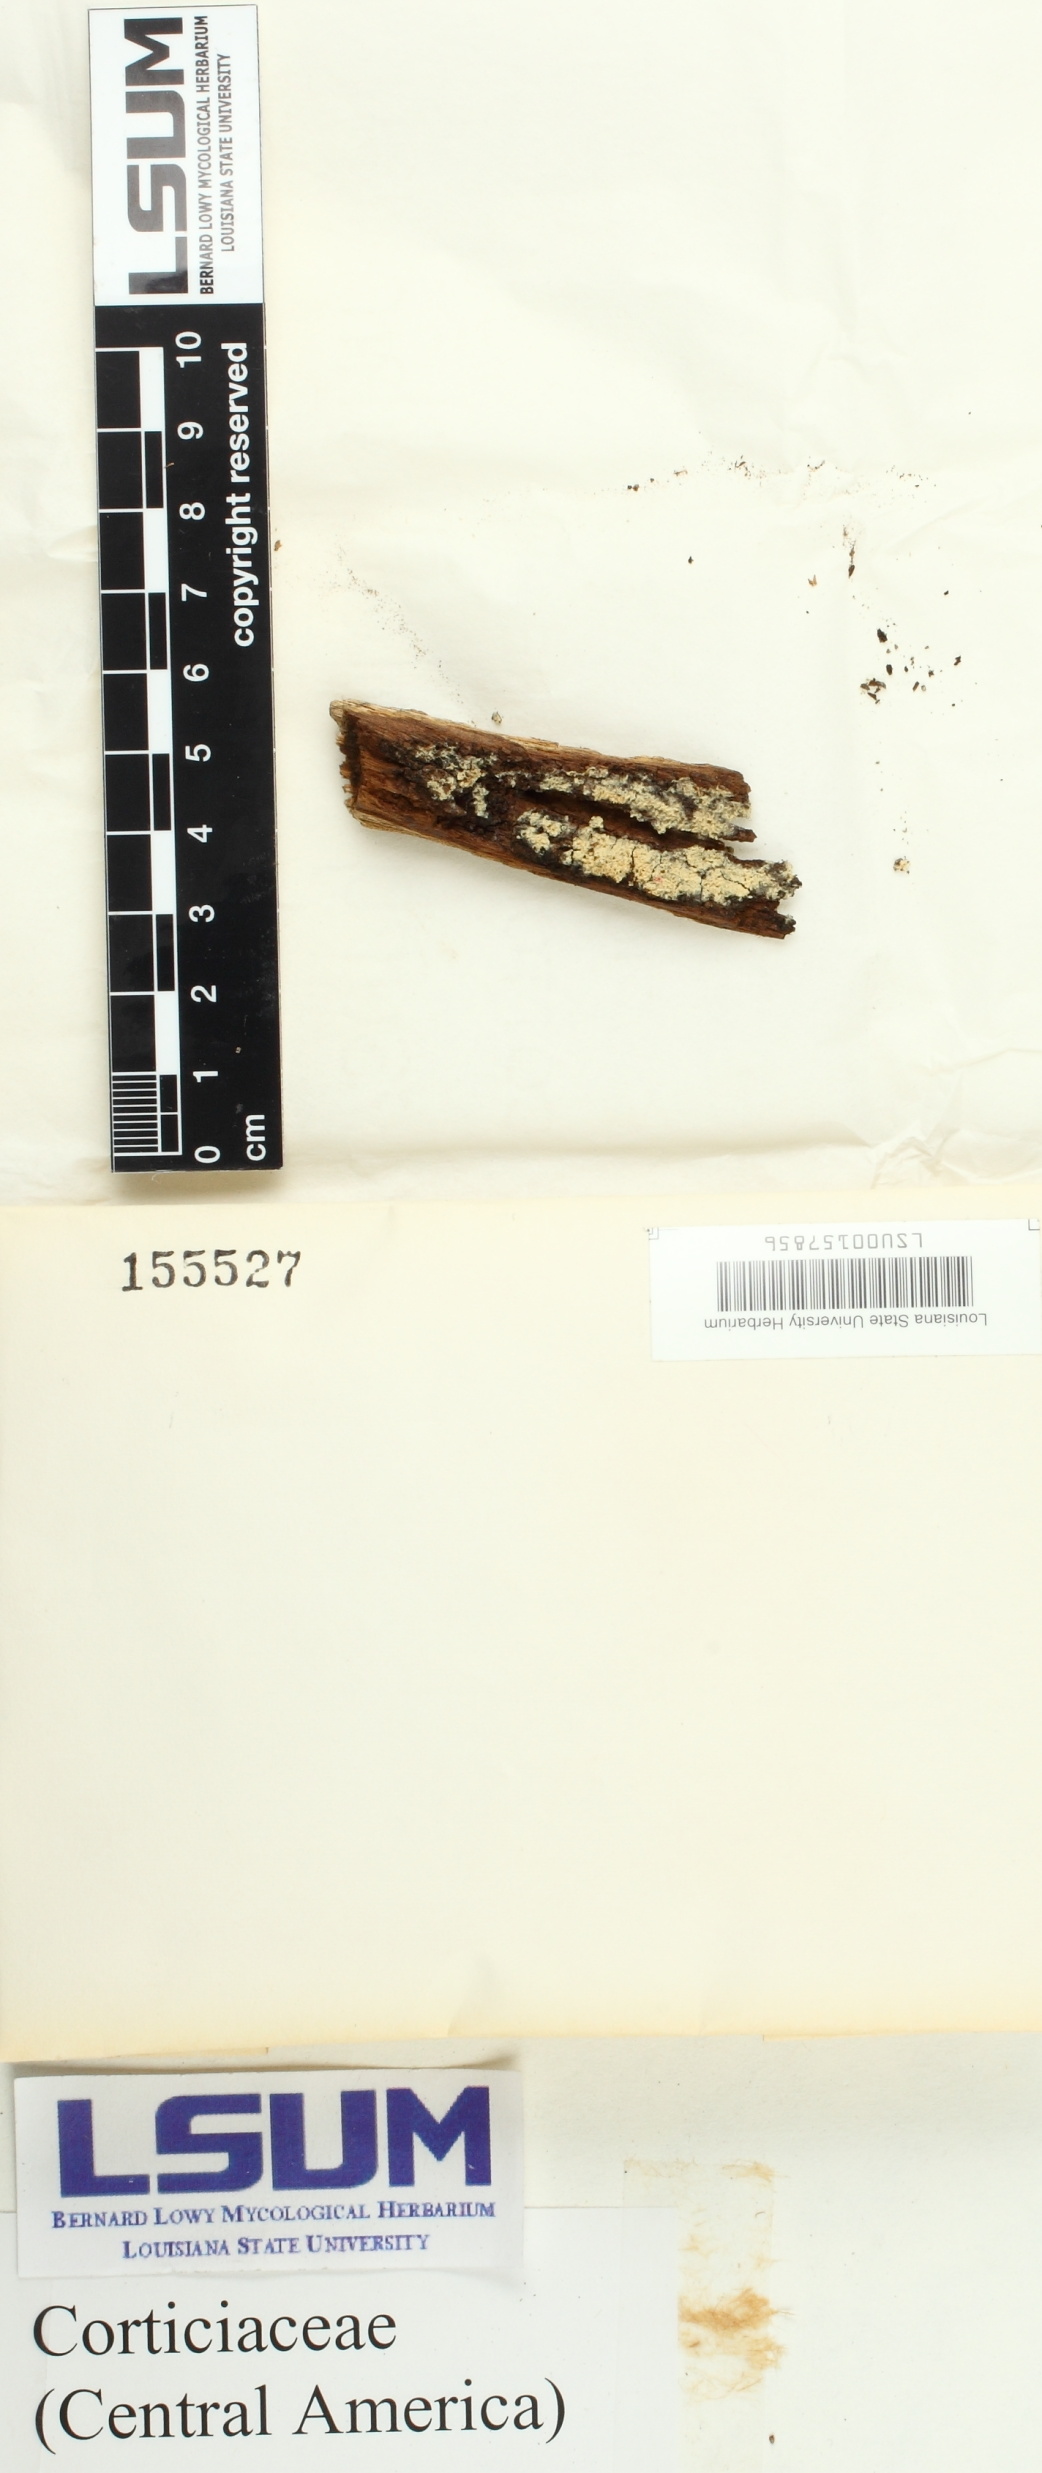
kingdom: Fungi
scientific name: Fungi
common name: Fungi
